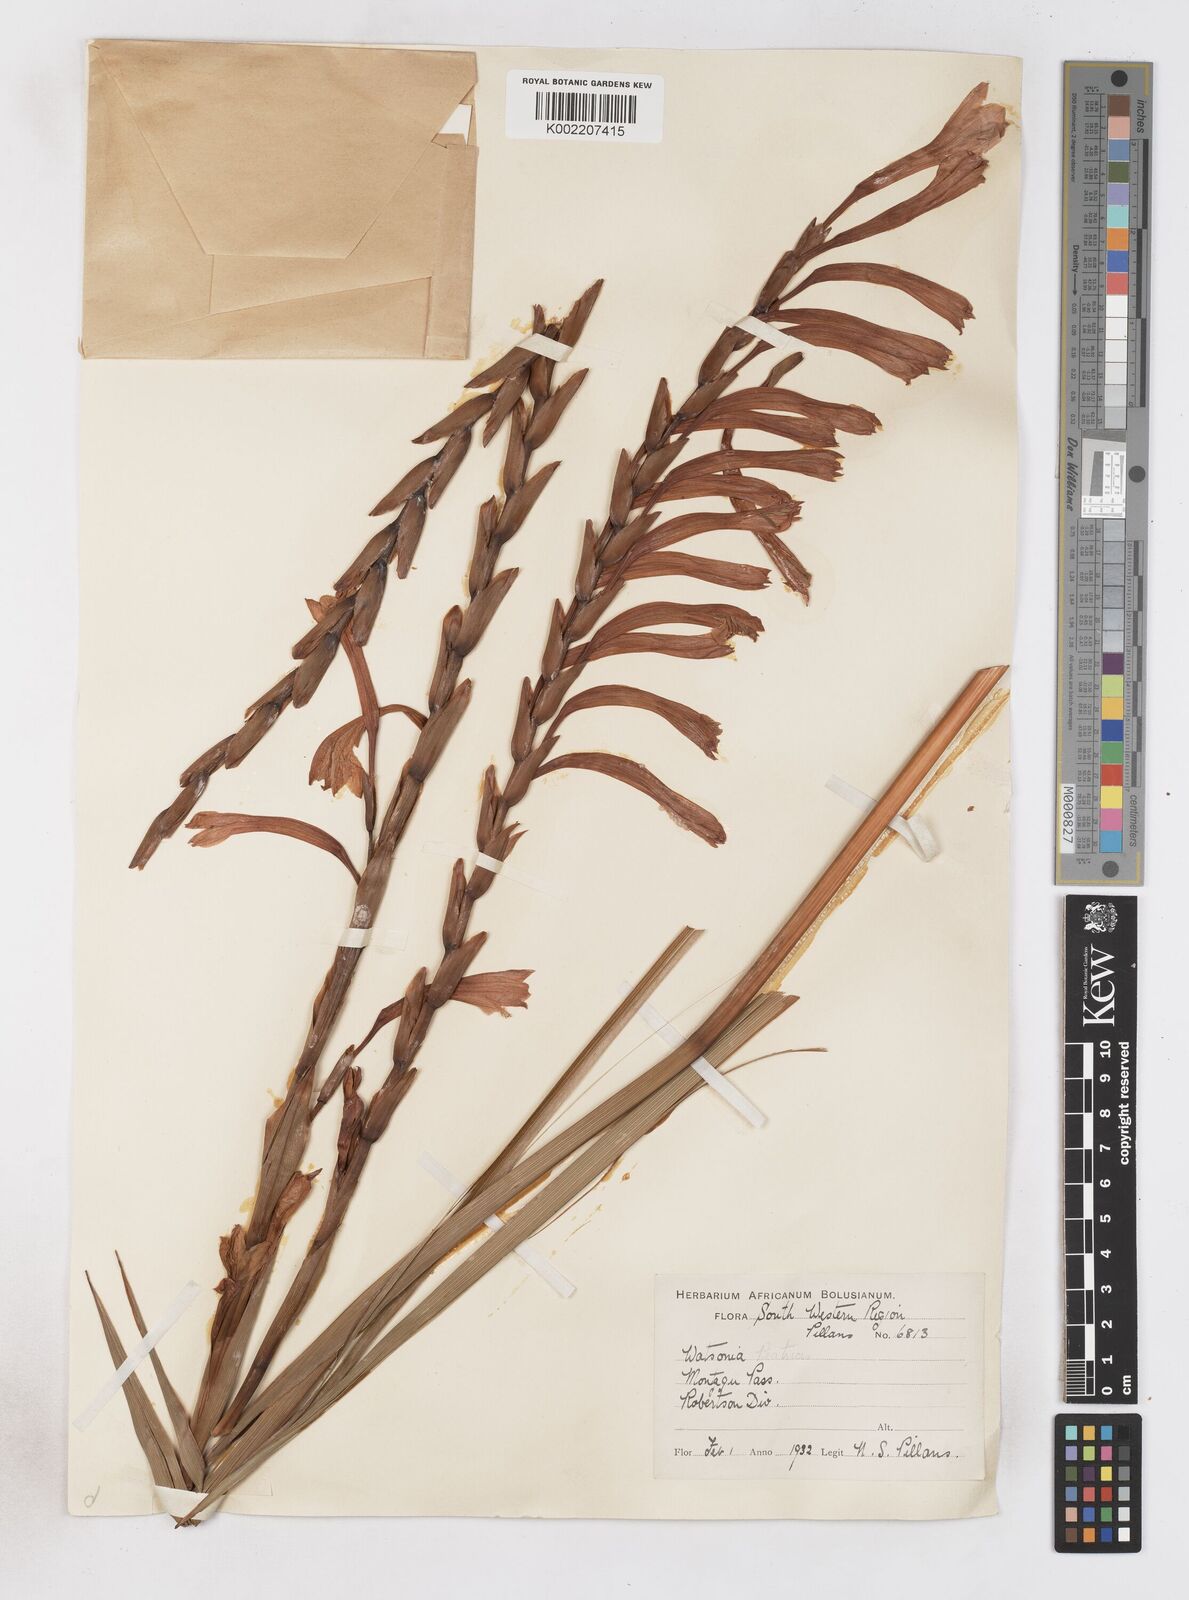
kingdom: Plantae
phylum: Tracheophyta
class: Liliopsida
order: Asparagales
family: Iridaceae
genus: Watsonia
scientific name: Watsonia pillansii
